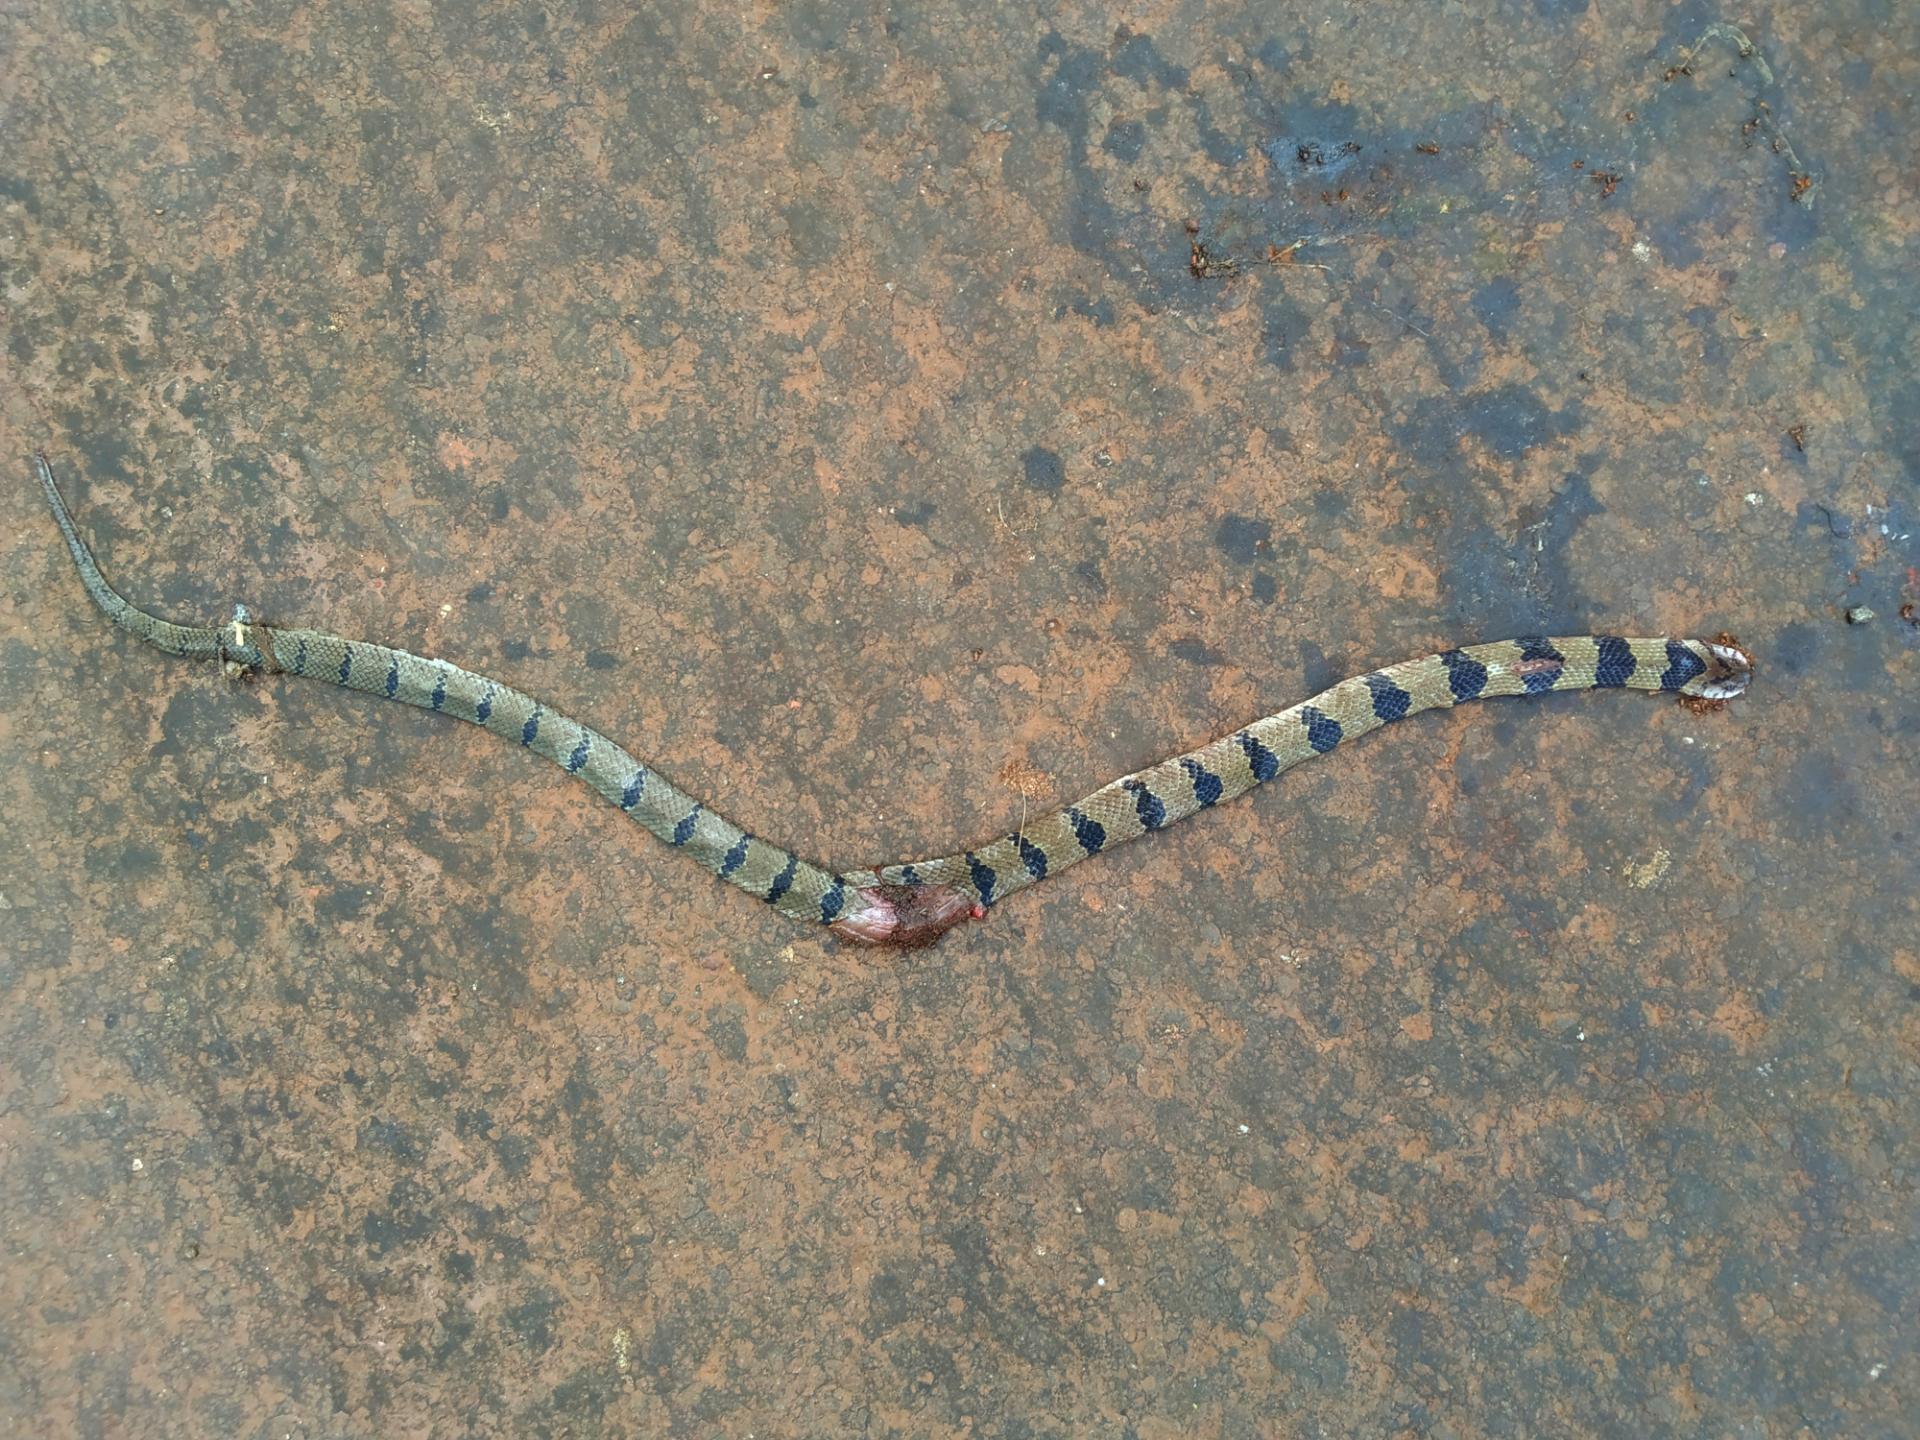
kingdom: Animalia
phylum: Chordata
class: Squamata
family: Colubridae
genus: Oligodon
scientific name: Oligodon arnensis
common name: Banded kukri
